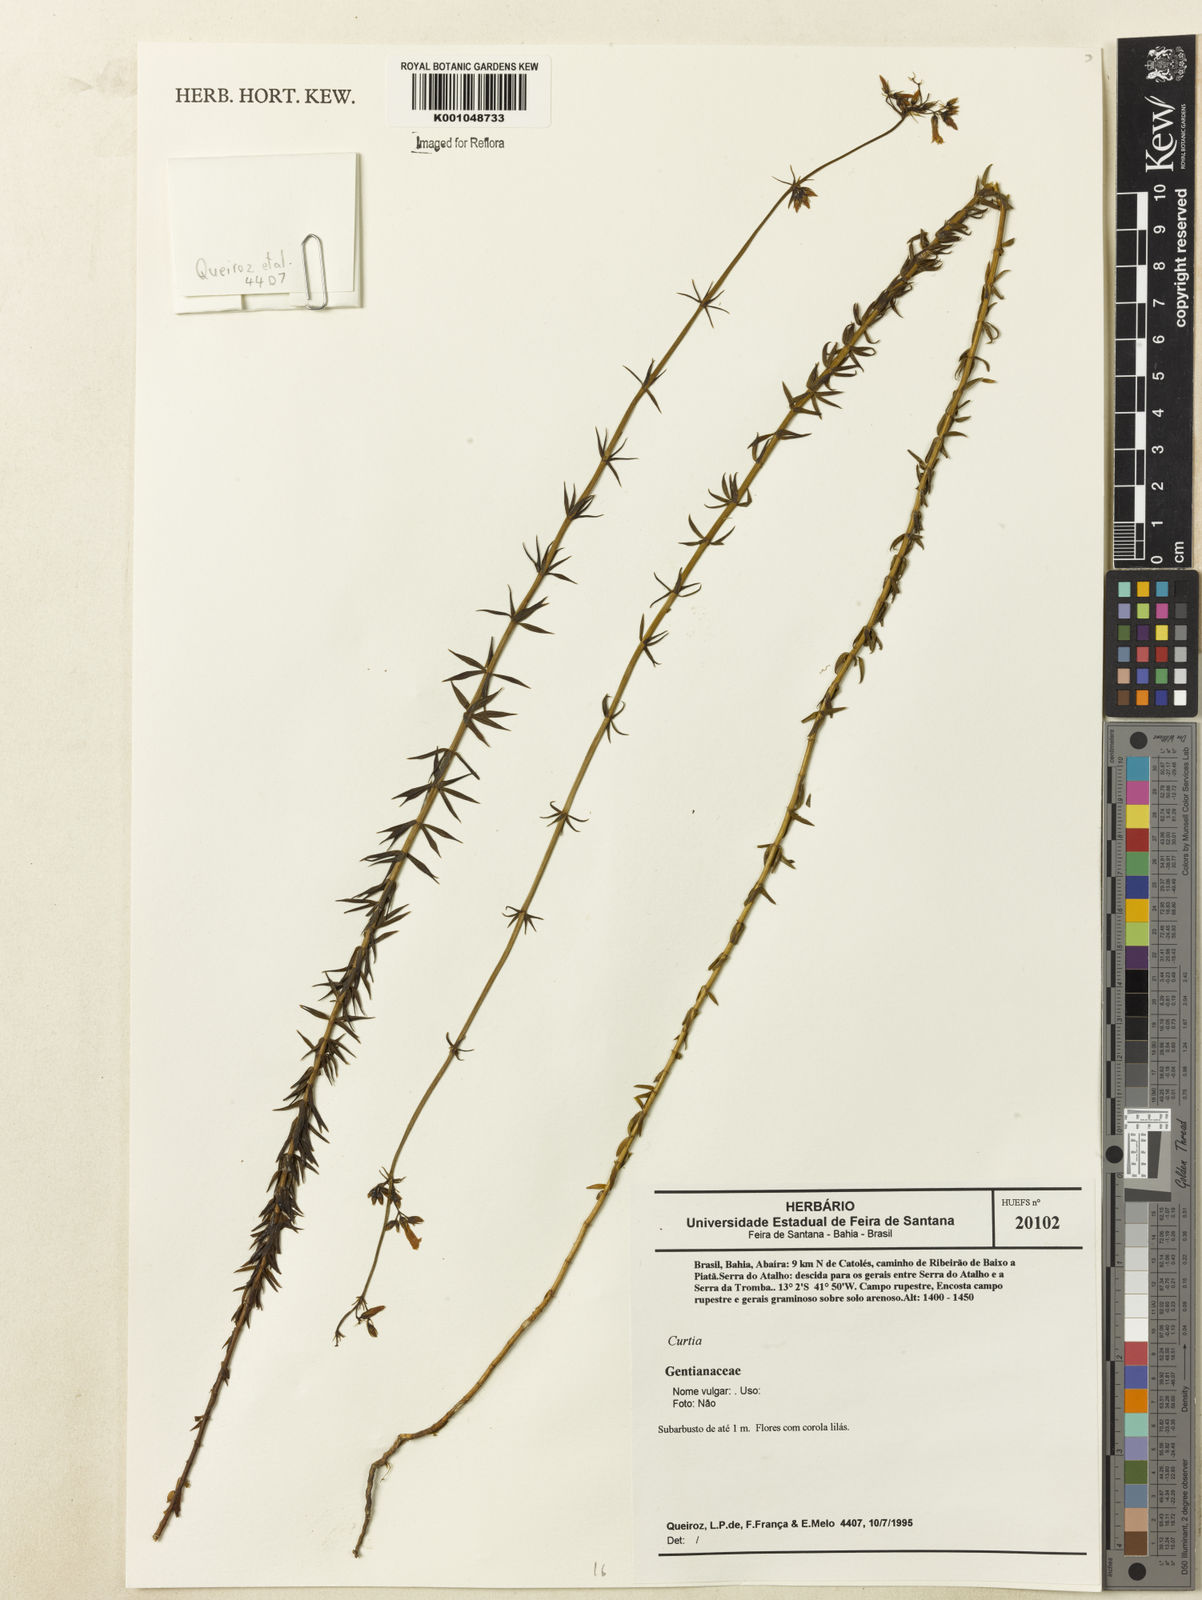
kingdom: Plantae
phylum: Tracheophyta
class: Magnoliopsida
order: Gentianales
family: Gentianaceae
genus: Curtia
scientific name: Curtia
